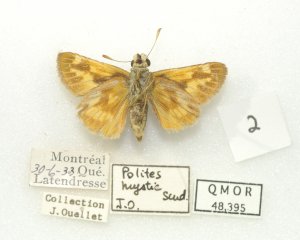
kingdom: Animalia
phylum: Arthropoda
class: Insecta
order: Lepidoptera
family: Hesperiidae
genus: Polites
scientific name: Polites
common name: Long Dash Skipper
